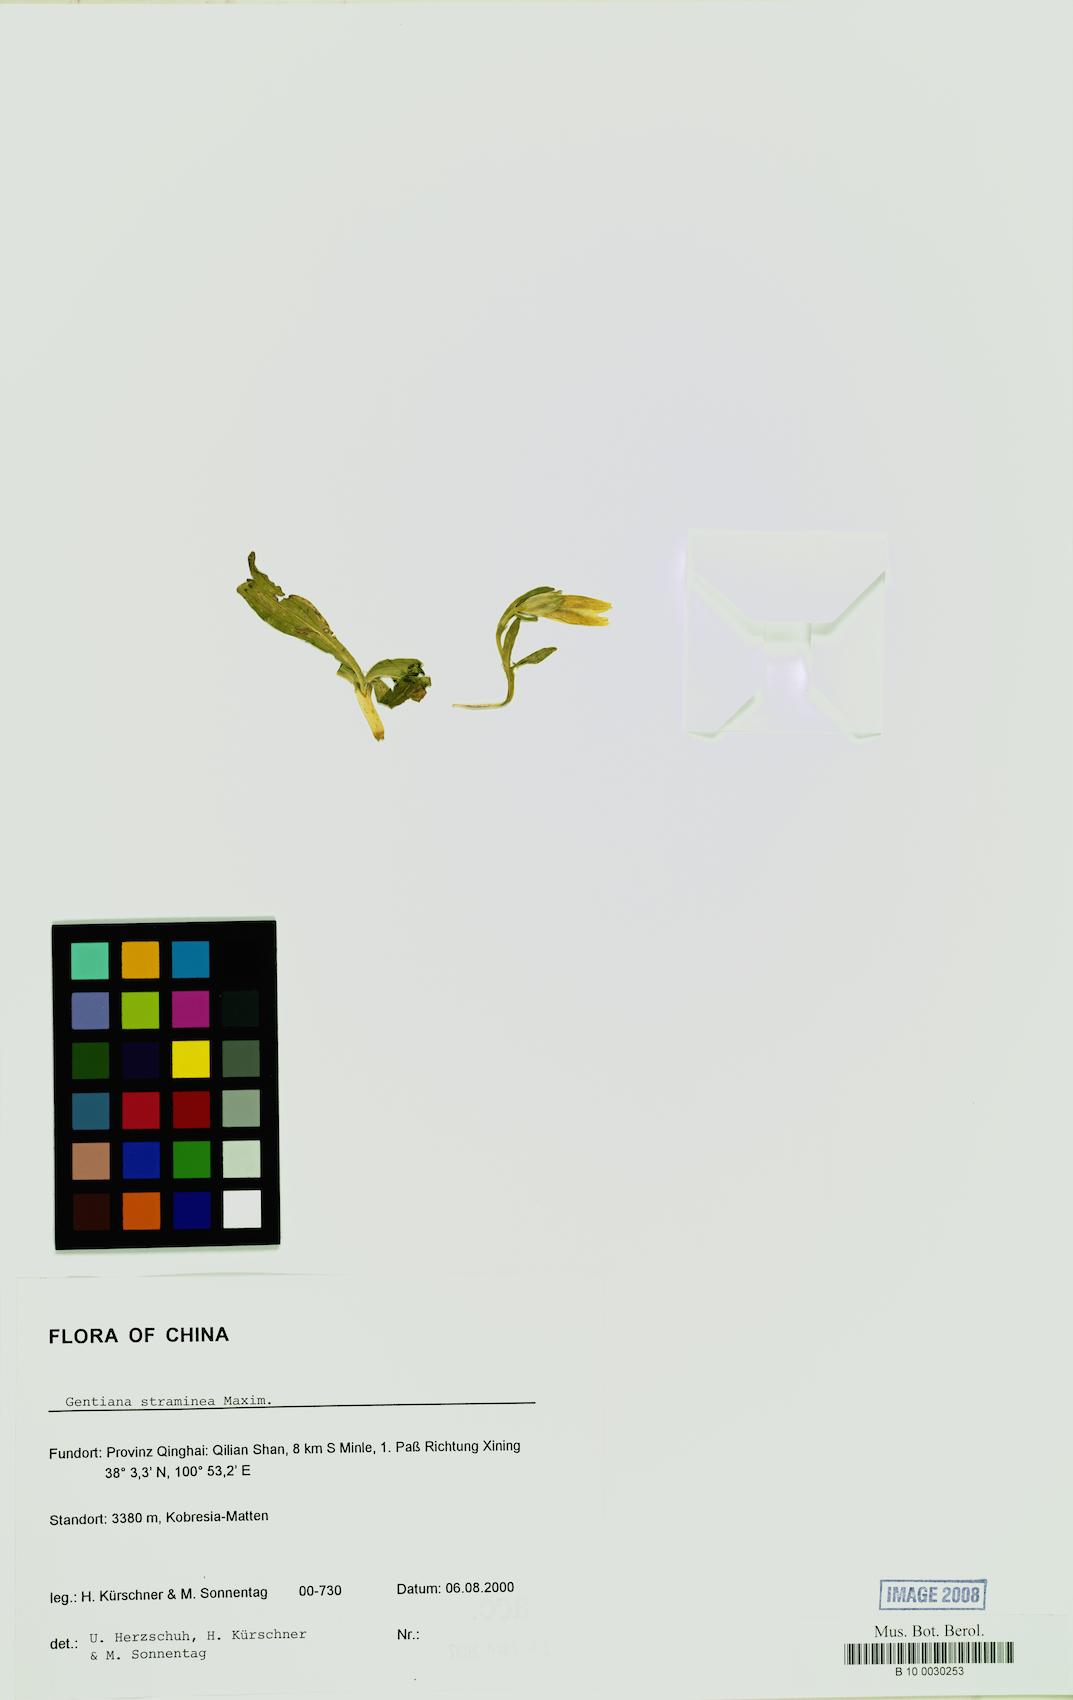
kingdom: Plantae
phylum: Tracheophyta
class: Magnoliopsida
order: Gentianales
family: Gentianaceae
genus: Gentiana
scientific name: Gentiana straminea
